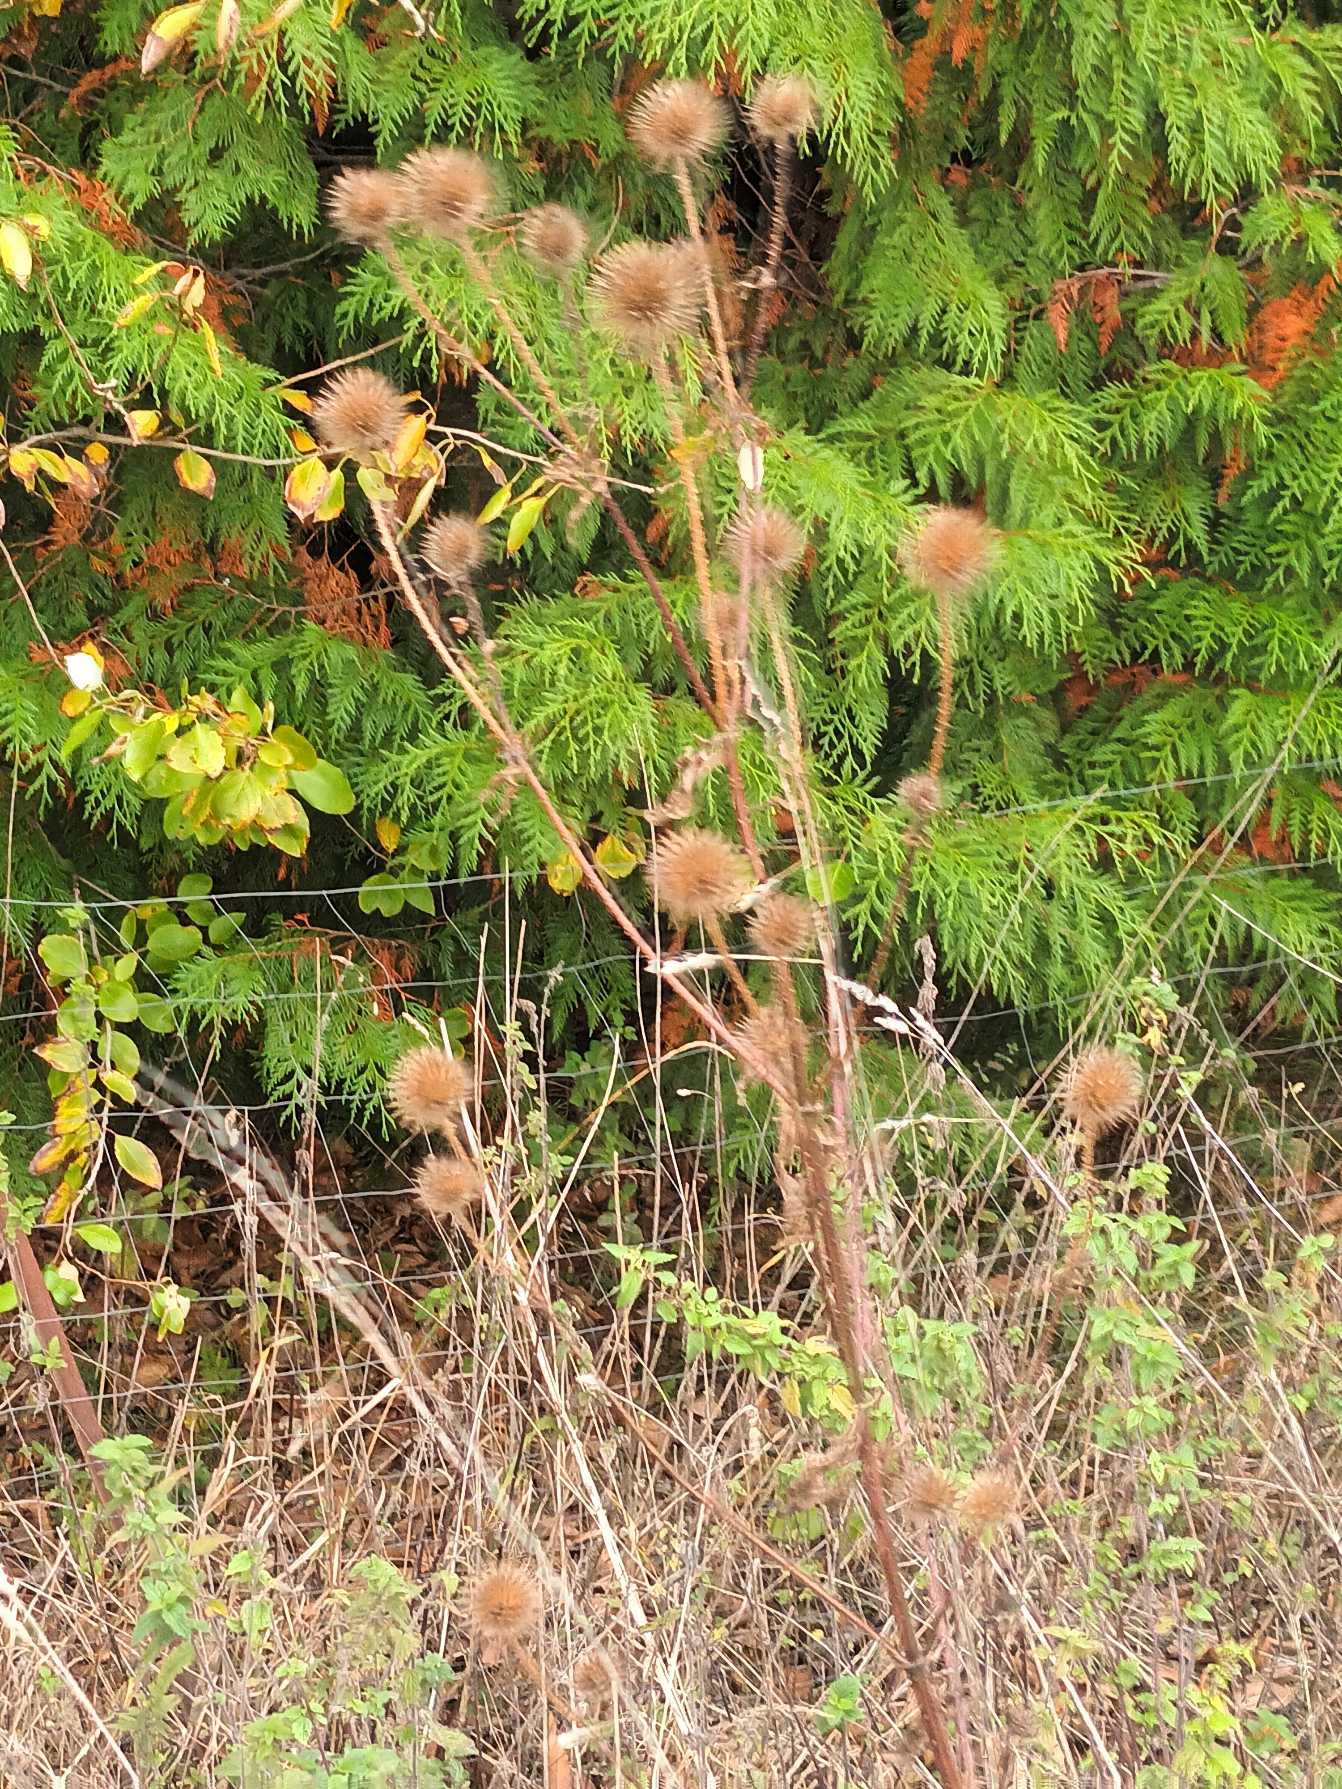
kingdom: Plantae
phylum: Tracheophyta
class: Magnoliopsida
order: Dipsacales
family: Caprifoliaceae
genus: Dipsacus
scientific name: Dipsacus strigosus
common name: Pindsvin-kartebolle
